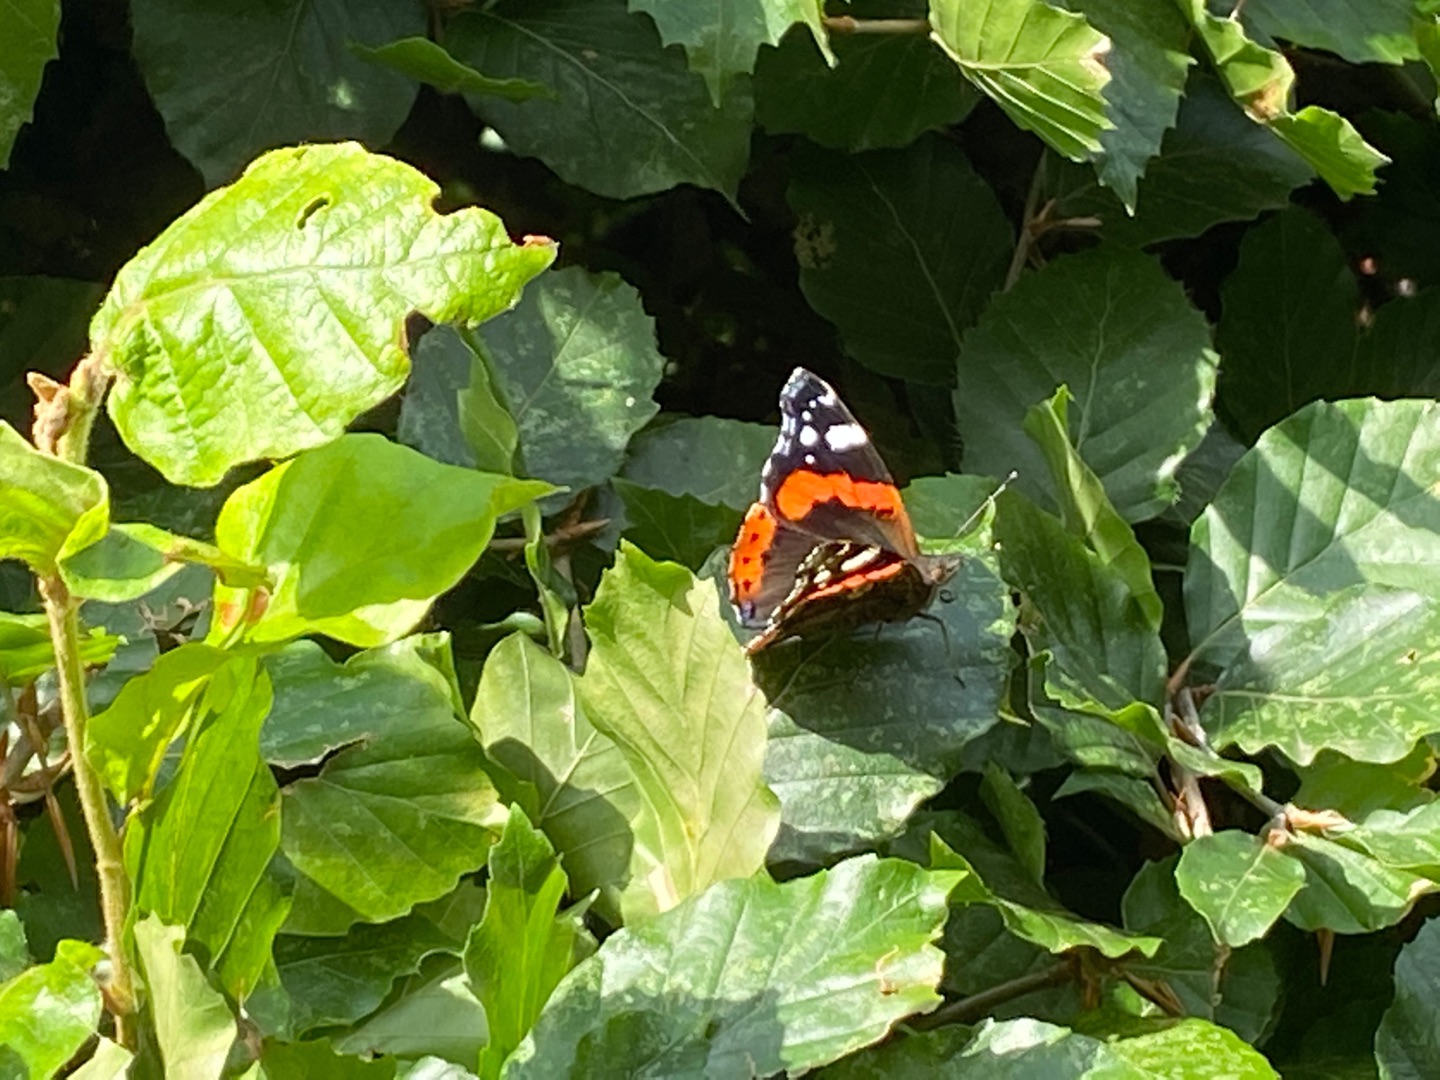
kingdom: Animalia
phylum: Arthropoda
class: Insecta
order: Lepidoptera
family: Nymphalidae
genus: Vanessa
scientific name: Vanessa atalanta
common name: Admiral
